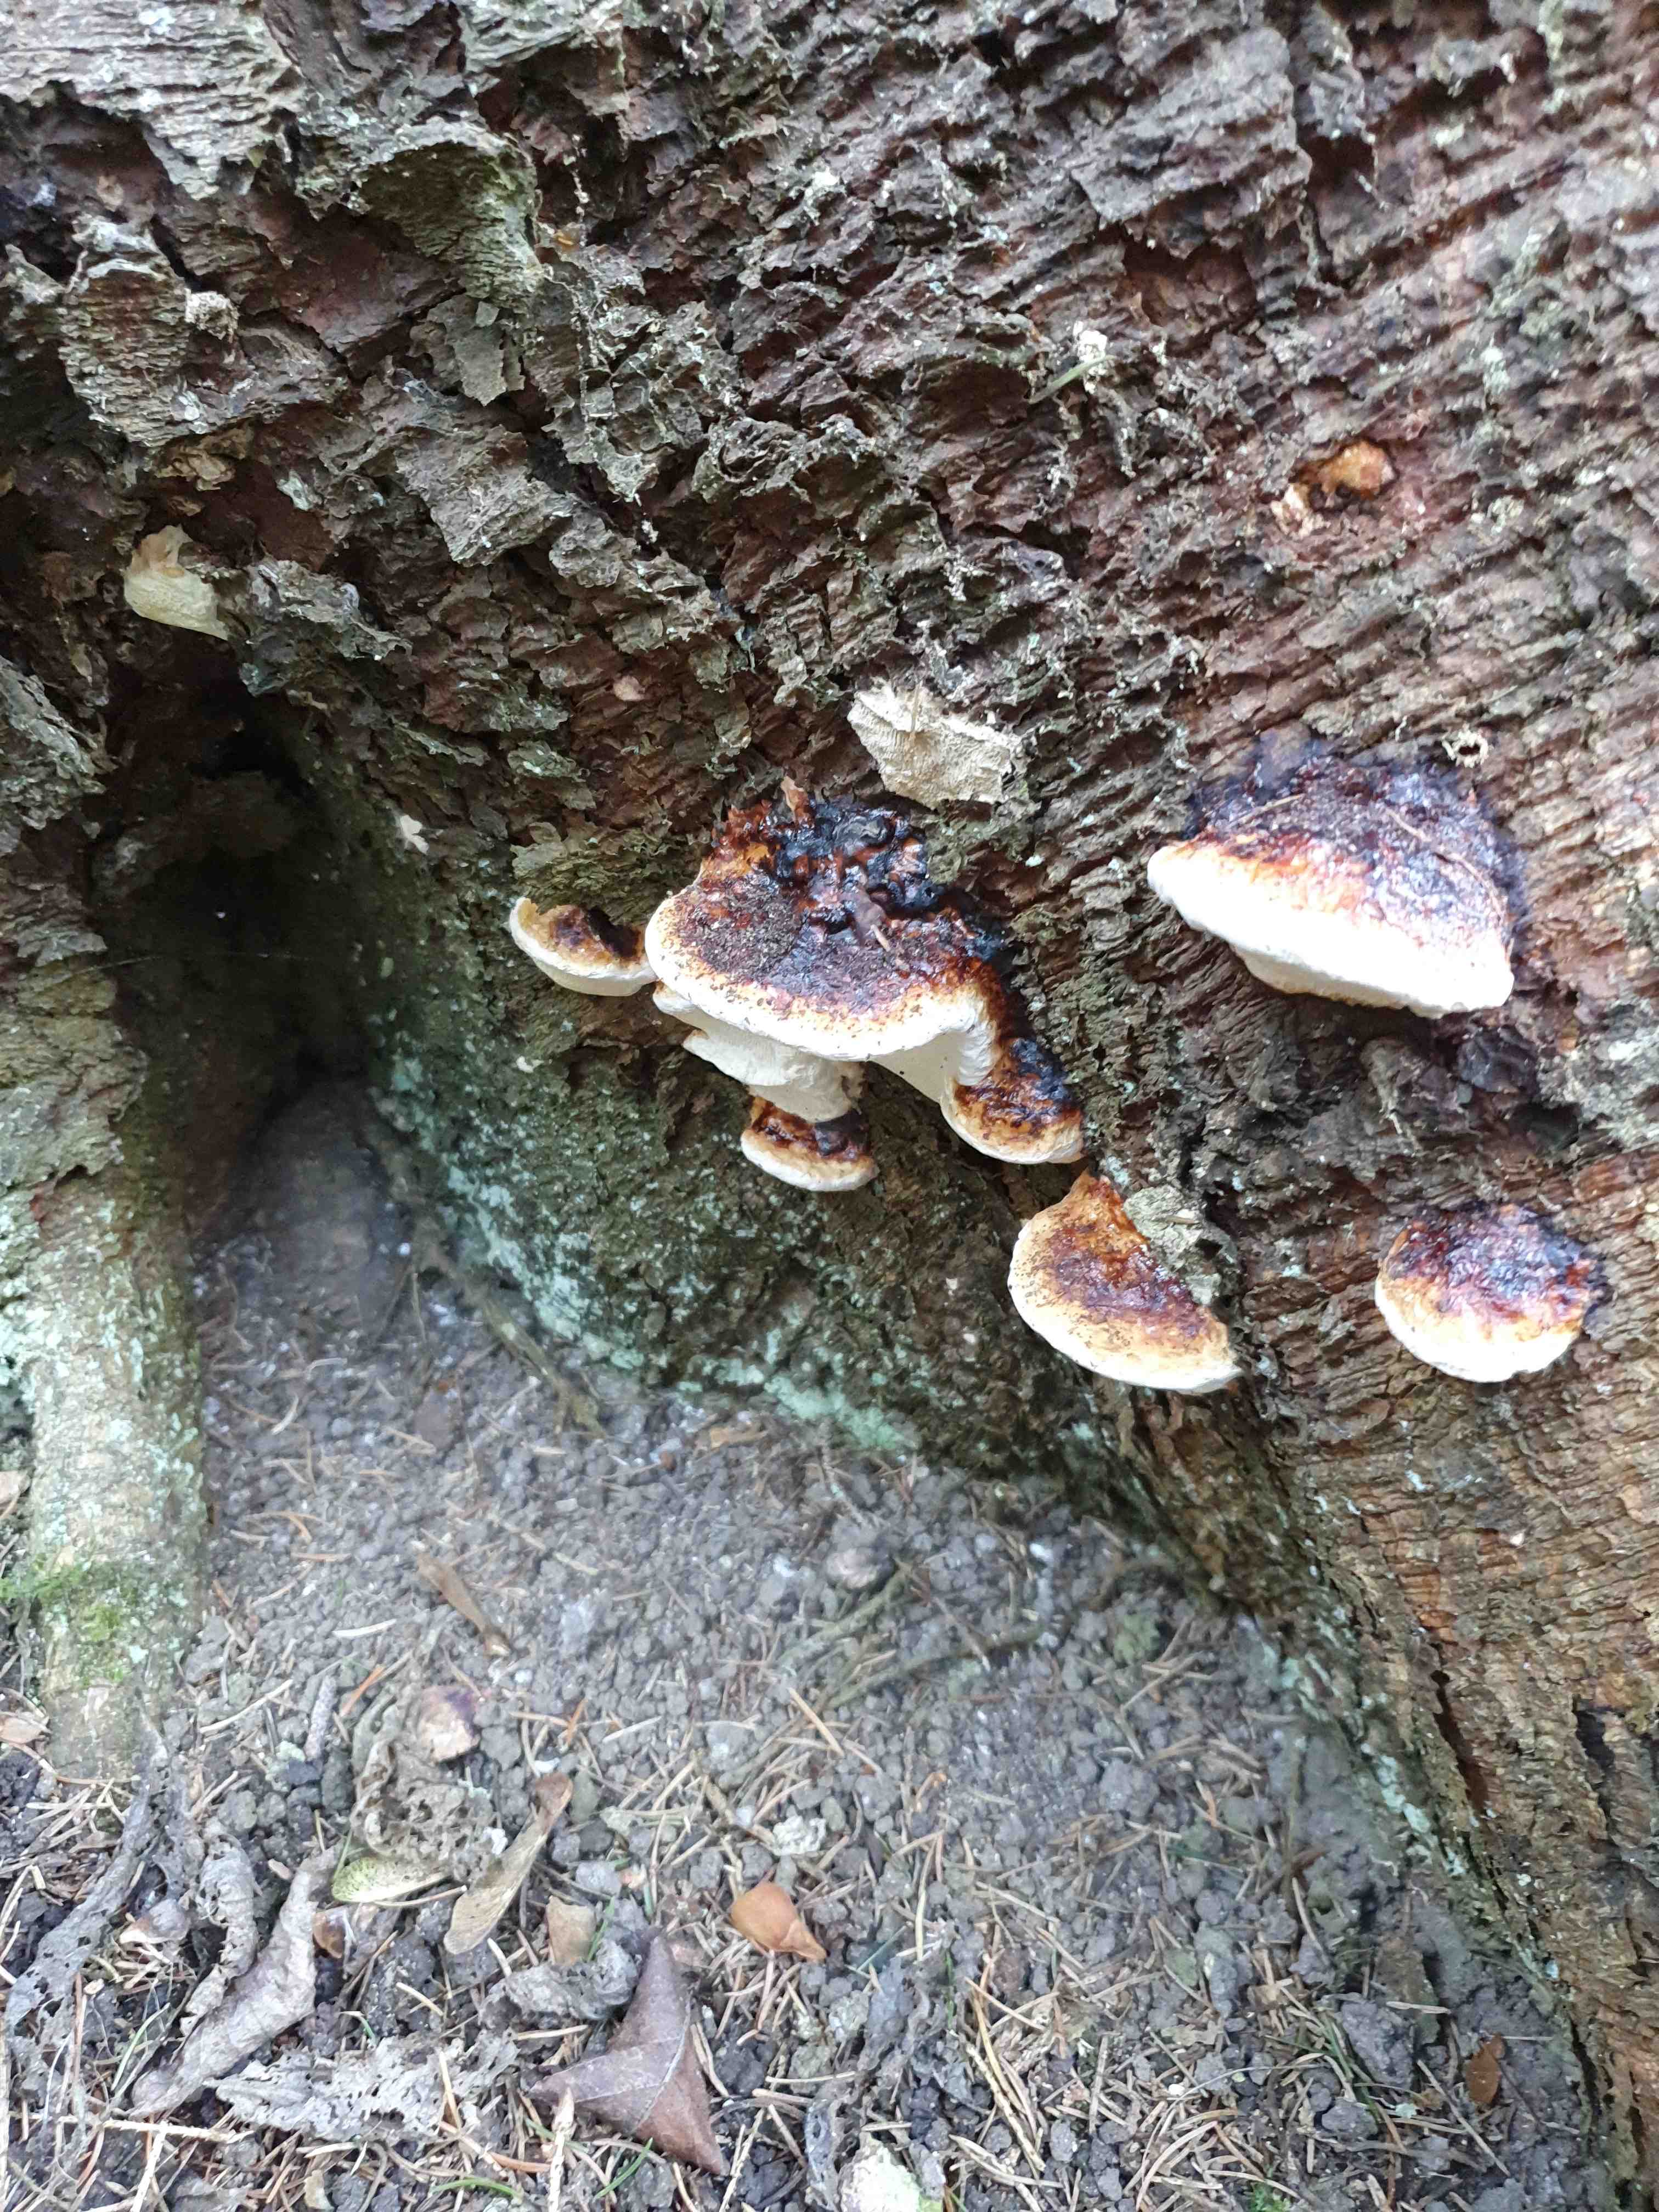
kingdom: Fungi
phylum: Basidiomycota
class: Agaricomycetes
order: Polyporales
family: Fomitopsidaceae
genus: Fomitopsis
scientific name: Fomitopsis pinicola
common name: randbæltet hovporesvamp
